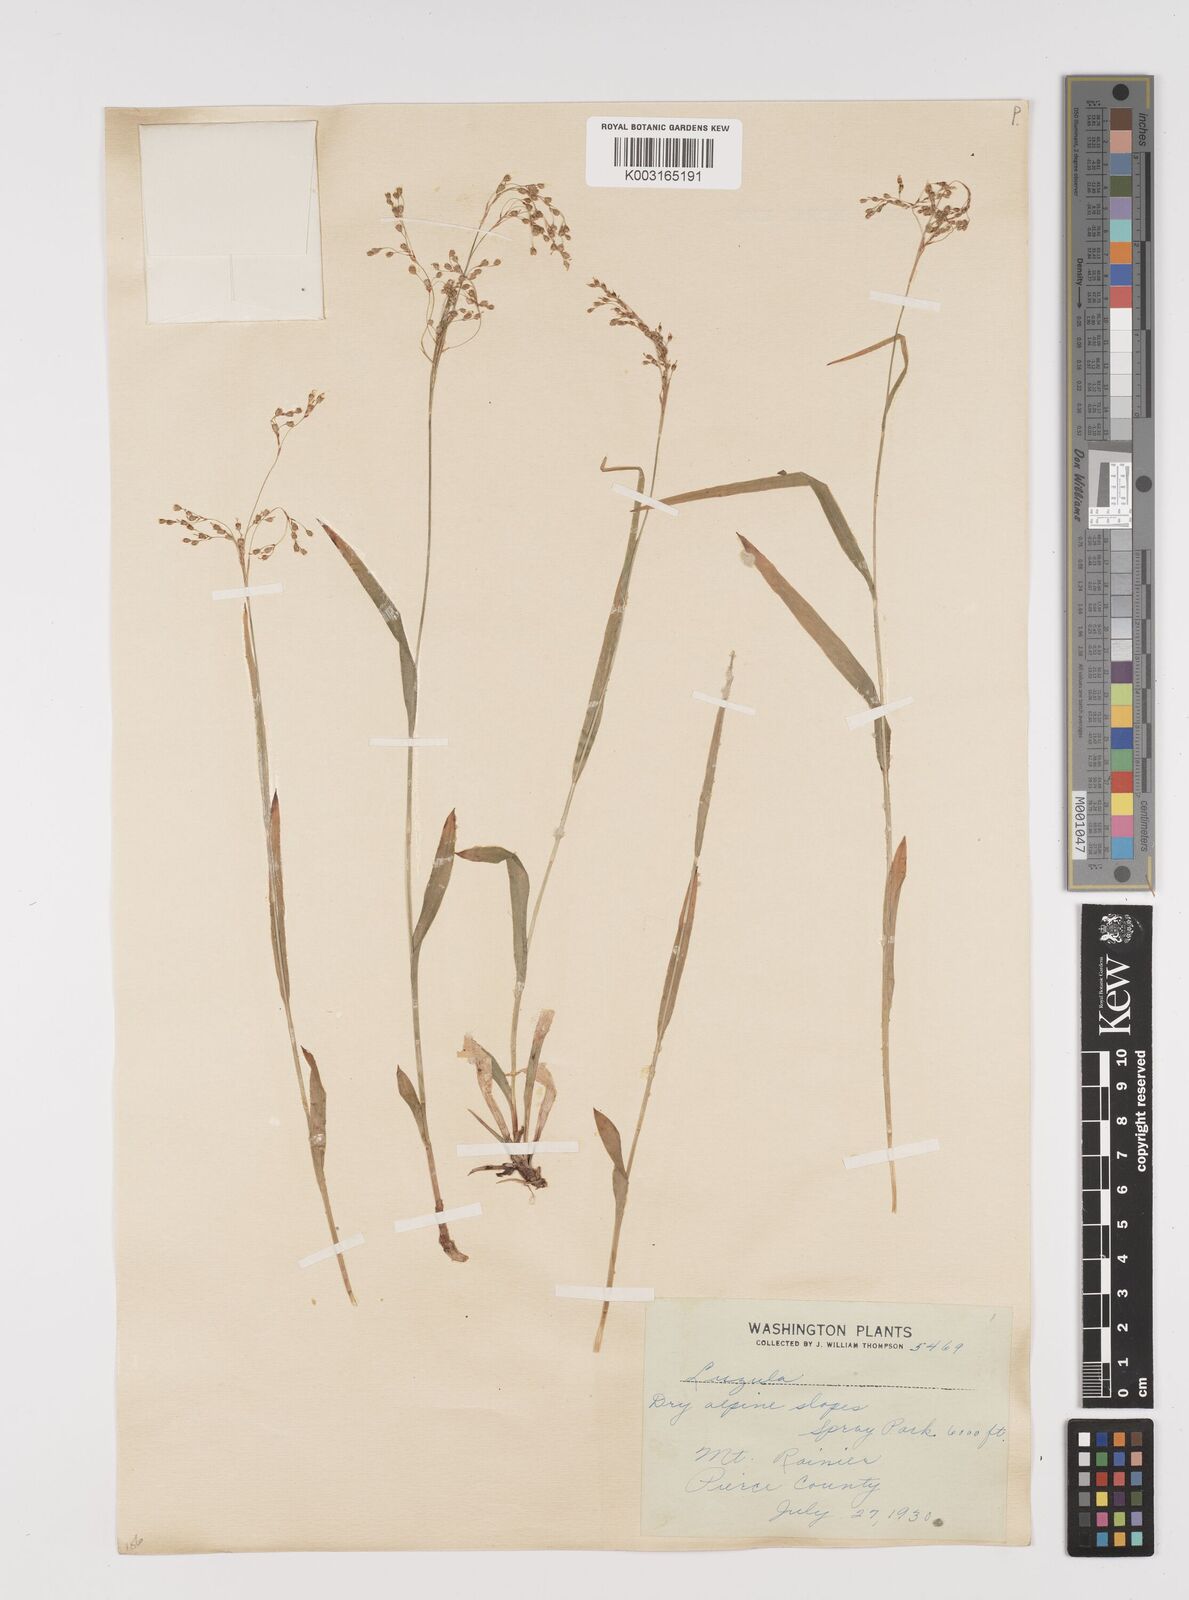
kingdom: Plantae
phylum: Tracheophyta
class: Liliopsida
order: Poales
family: Juncaceae
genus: Luzula
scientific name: Luzula
